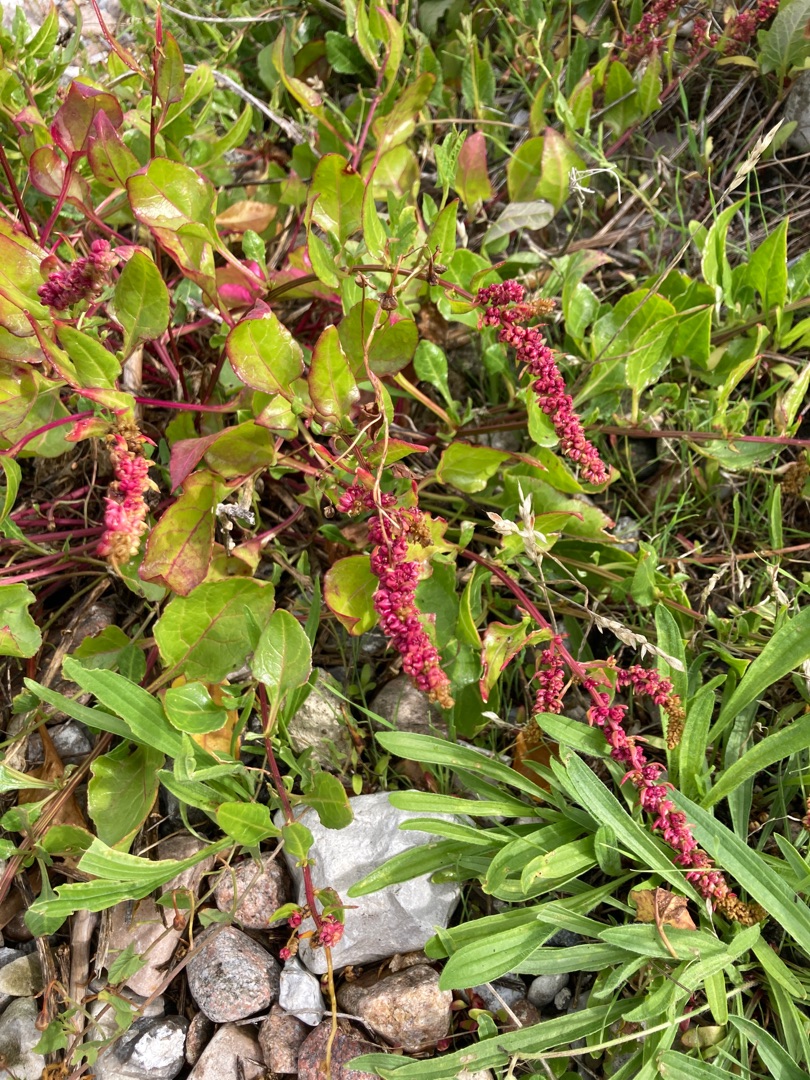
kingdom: Plantae
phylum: Tracheophyta
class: Magnoliopsida
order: Caryophyllales
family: Amaranthaceae
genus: Beta
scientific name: Beta maritima
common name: Strand-bede
